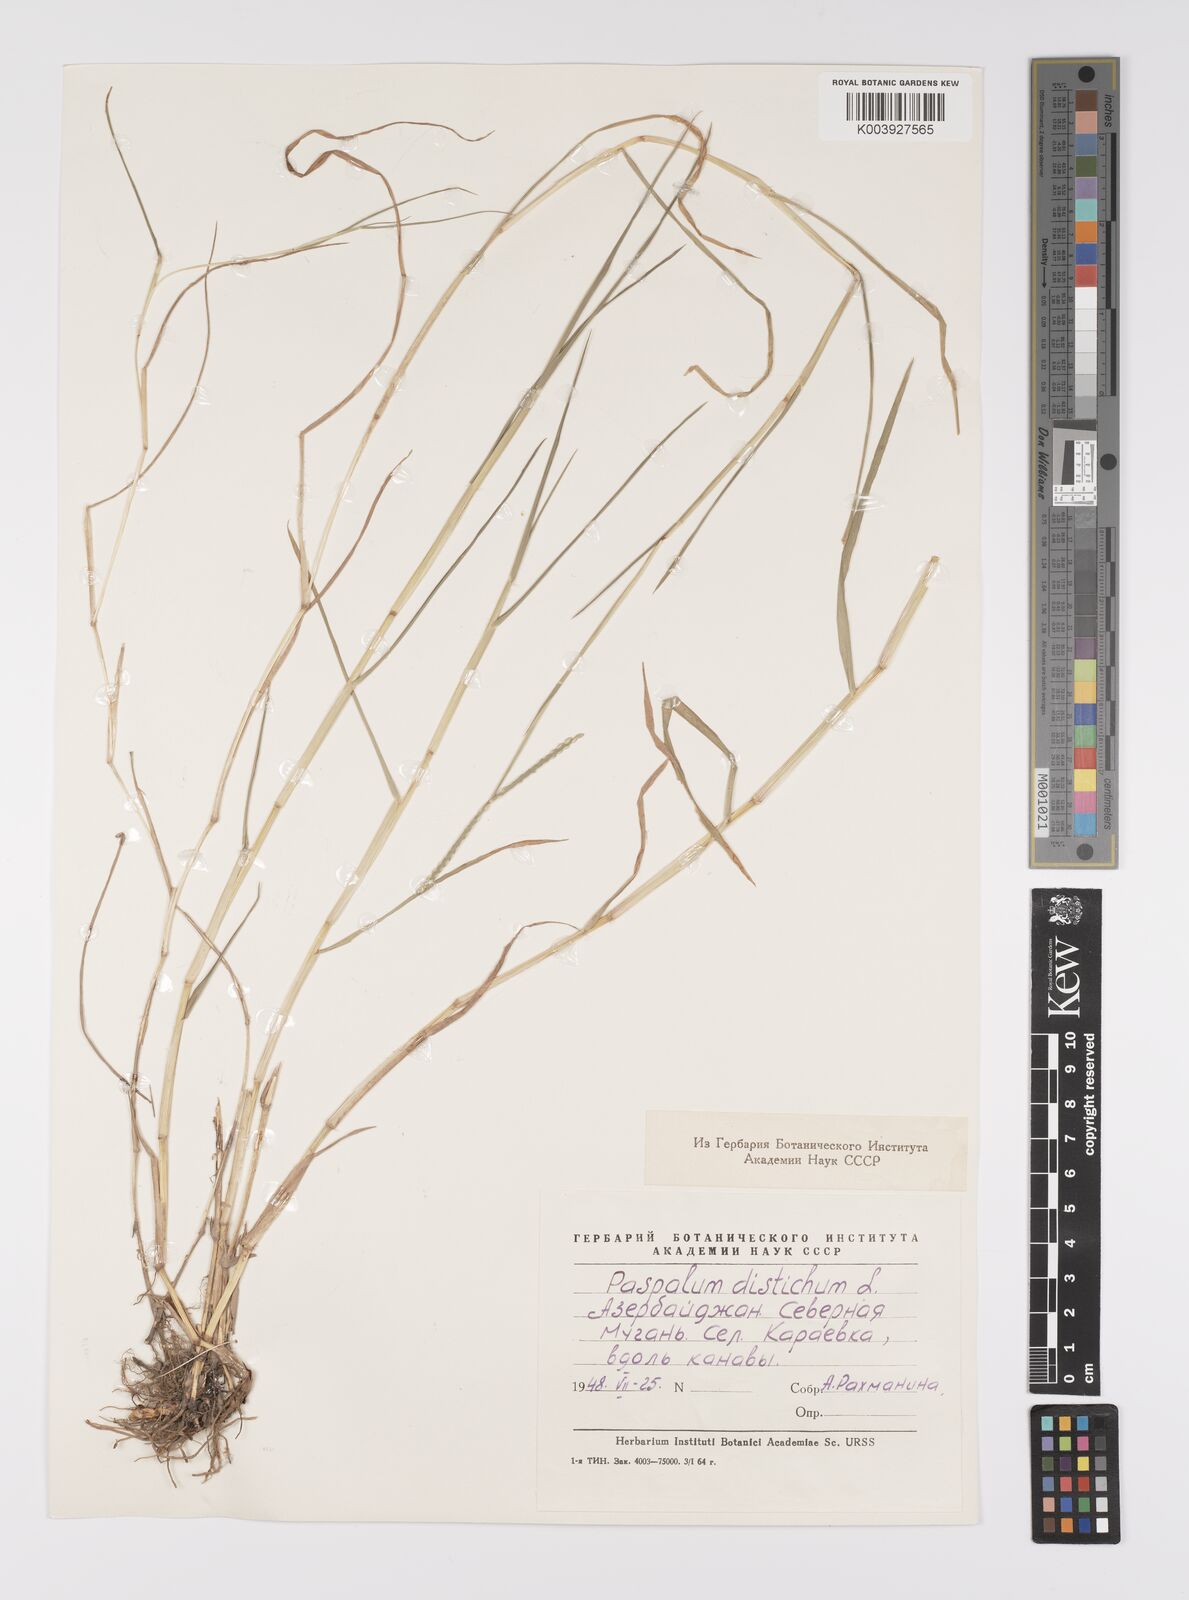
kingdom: Plantae
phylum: Tracheophyta
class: Liliopsida
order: Poales
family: Poaceae
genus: Paspalum
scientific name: Paspalum distichum
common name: Knotgrass
